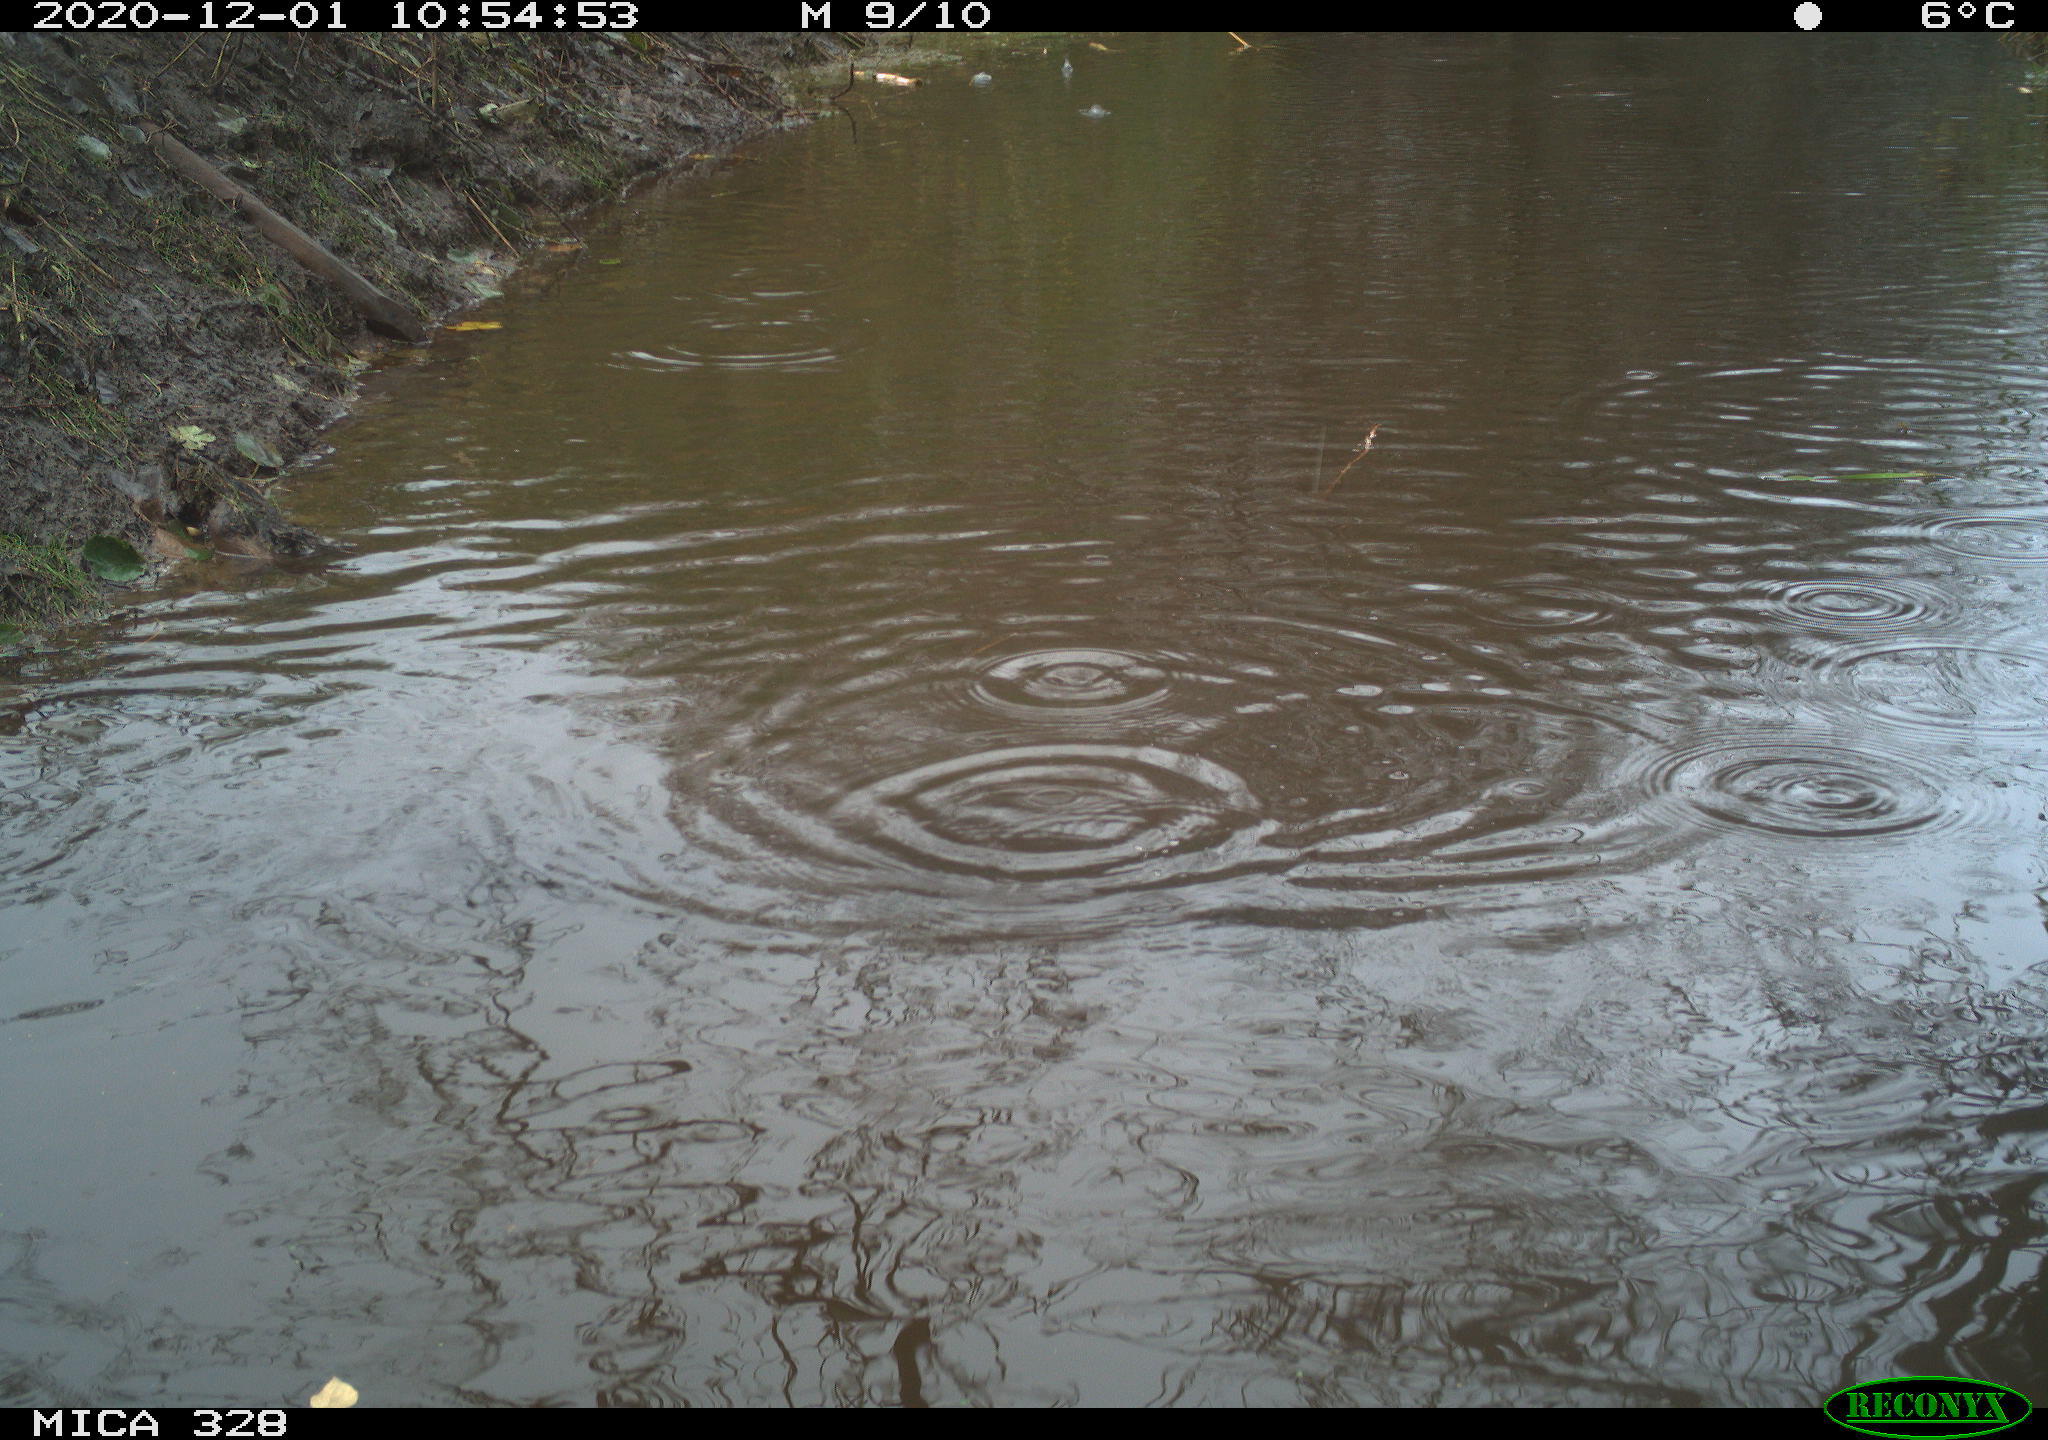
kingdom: Animalia
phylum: Chordata
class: Aves
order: Pelecaniformes
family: Ardeidae
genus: Ardea
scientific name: Ardea alba
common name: Great egret
